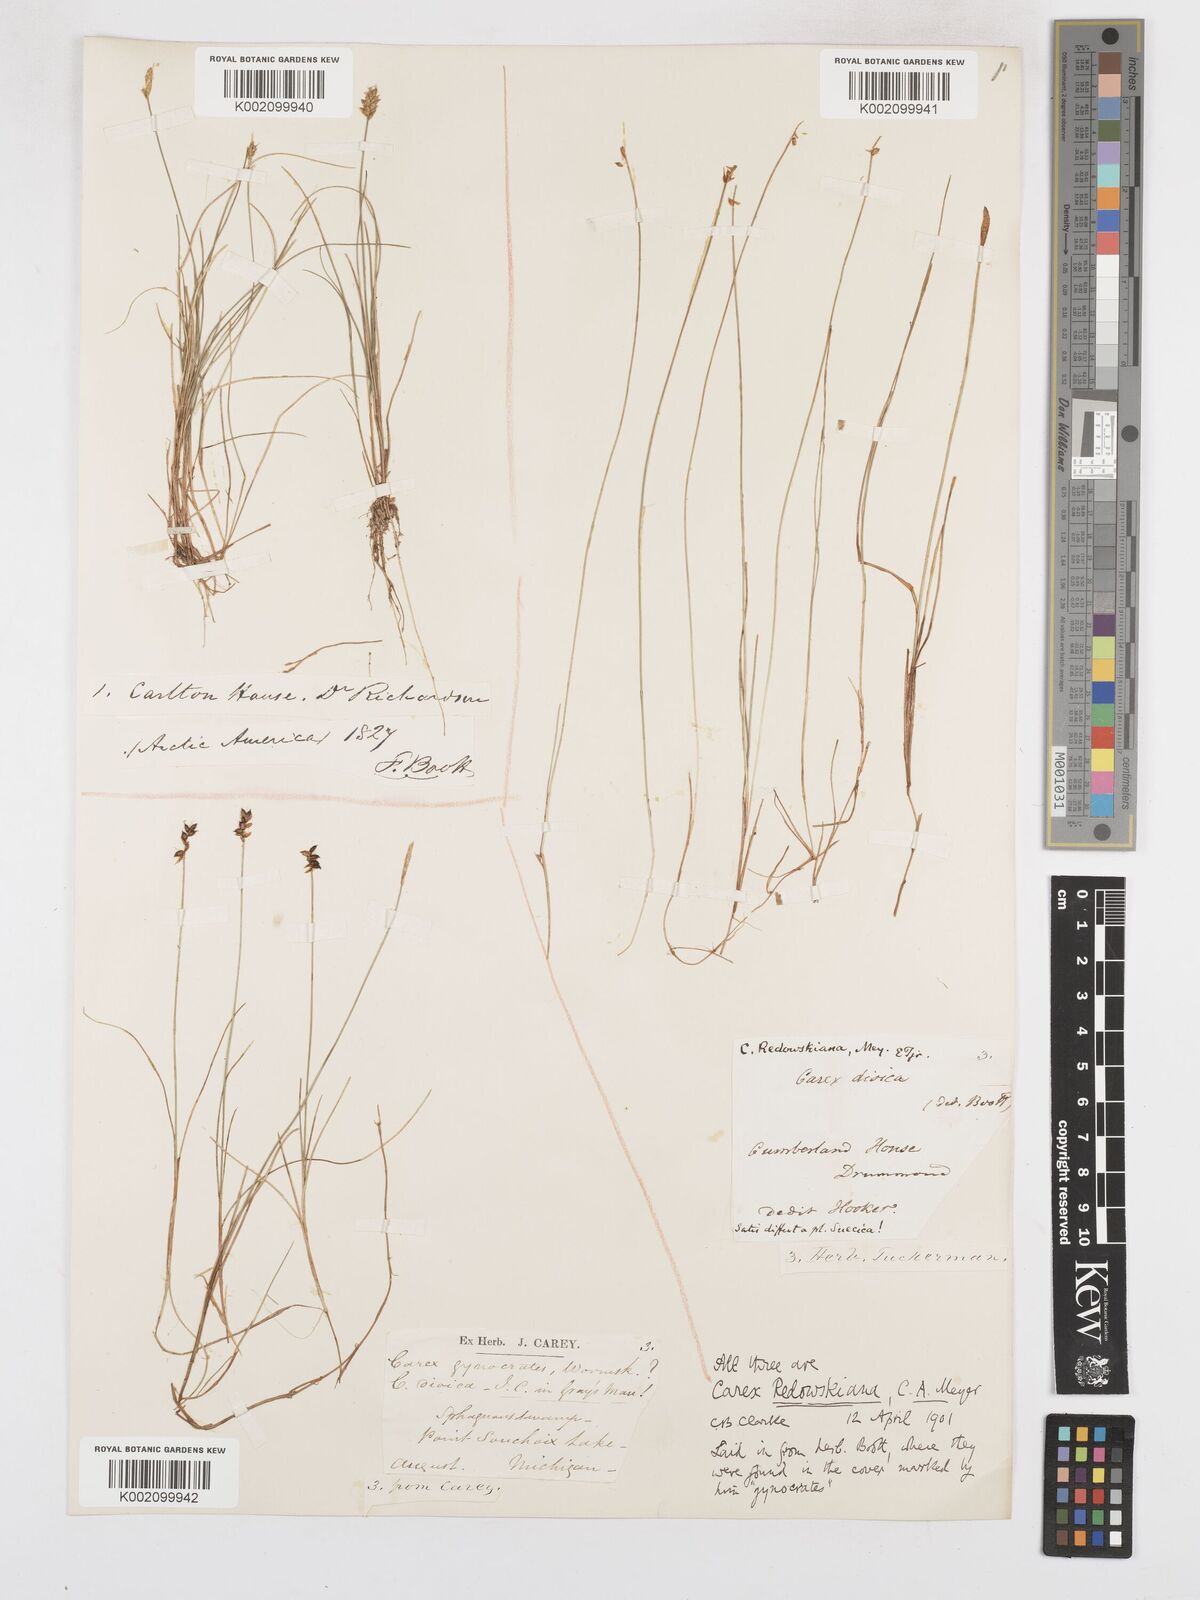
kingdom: Plantae
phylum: Tracheophyta
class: Liliopsida
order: Poales
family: Cyperaceae
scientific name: Cyperaceae
